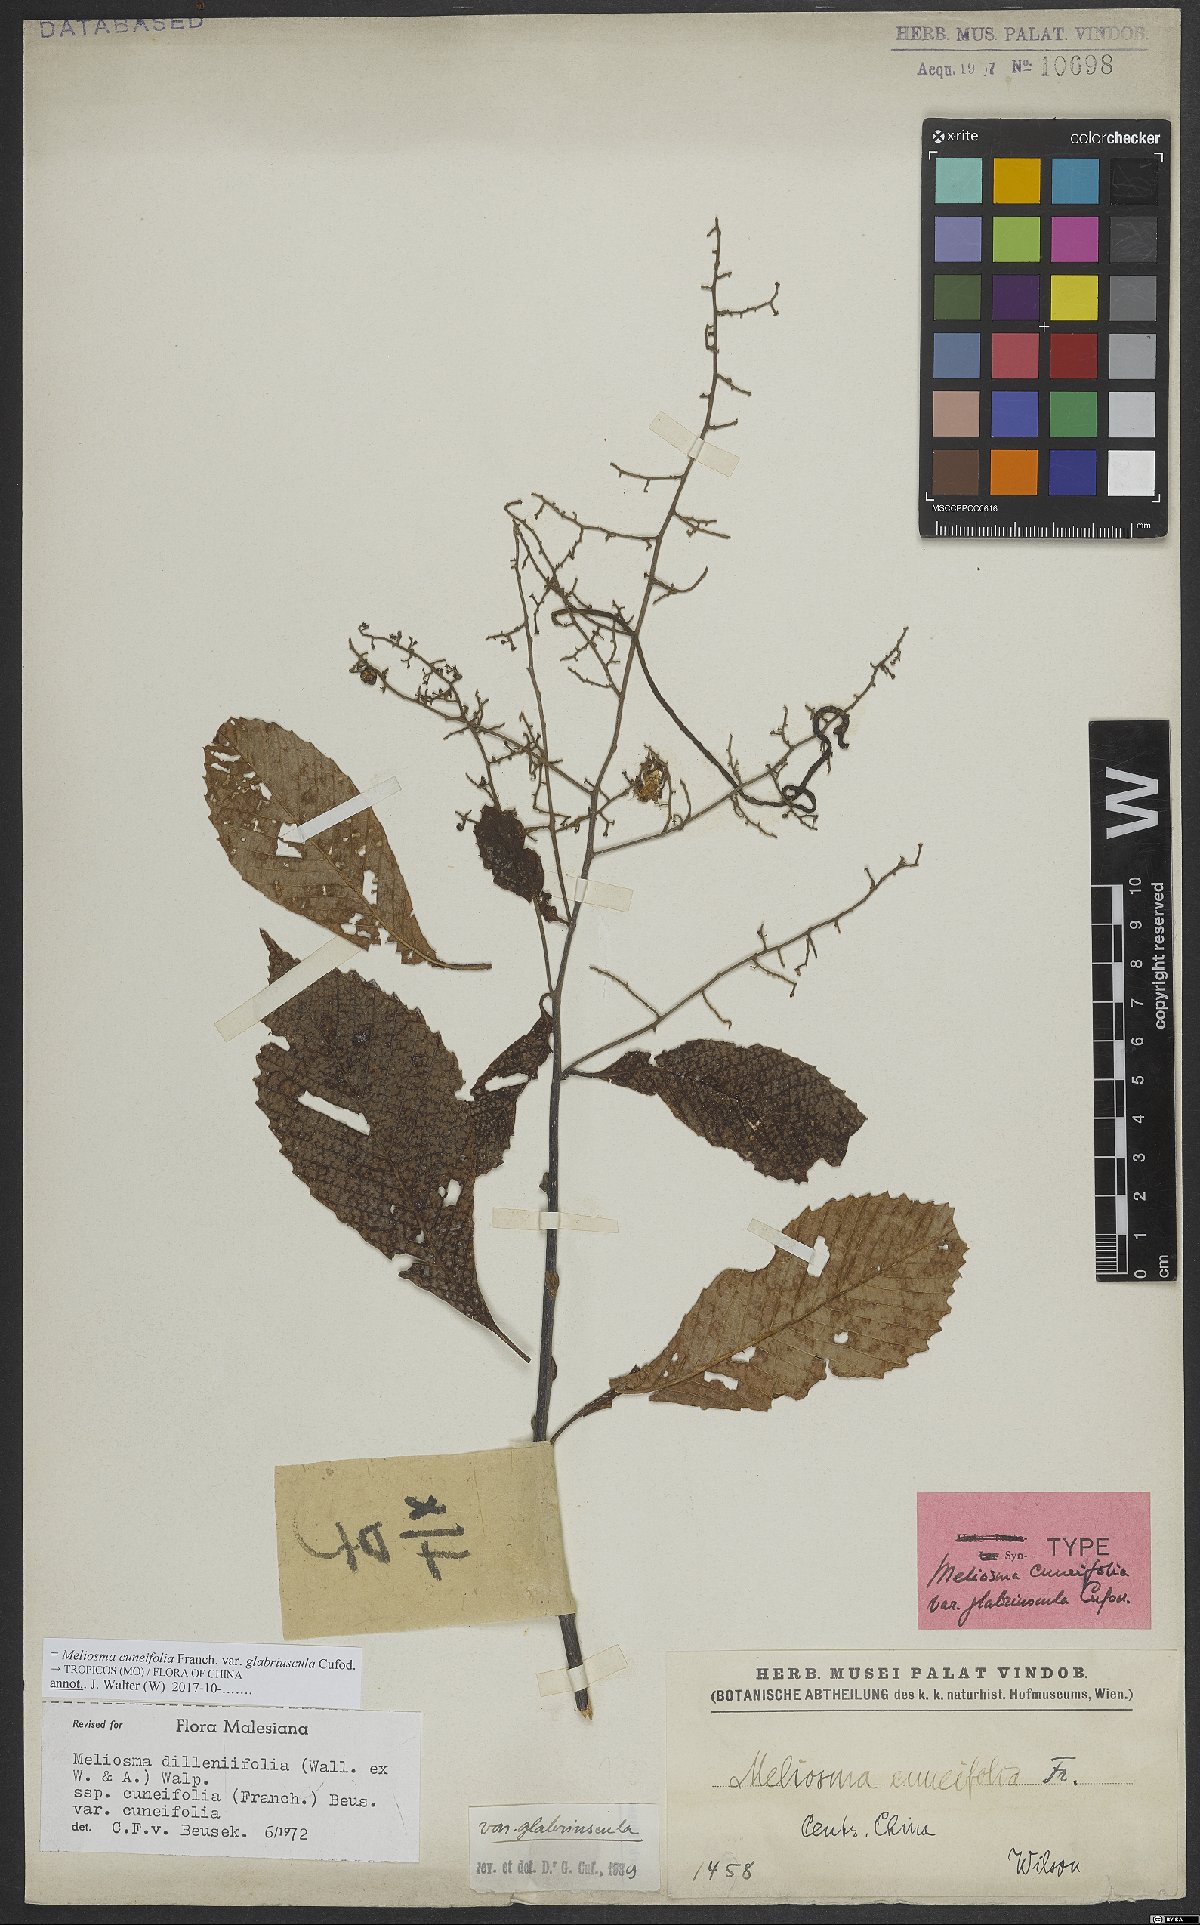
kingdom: Plantae
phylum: Tracheophyta
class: Magnoliopsida
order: Proteales
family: Sabiaceae
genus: Meliosma
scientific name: Meliosma cuneifolia
